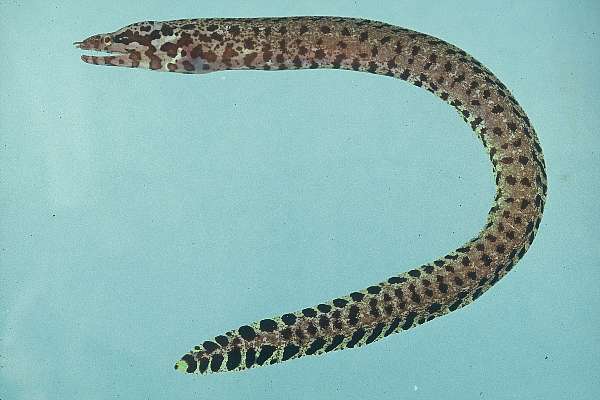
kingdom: Animalia
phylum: Chordata
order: Anguilliformes
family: Muraenidae
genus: Gymnothorax
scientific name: Gymnothorax zonipectis
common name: Bar-tail moray
